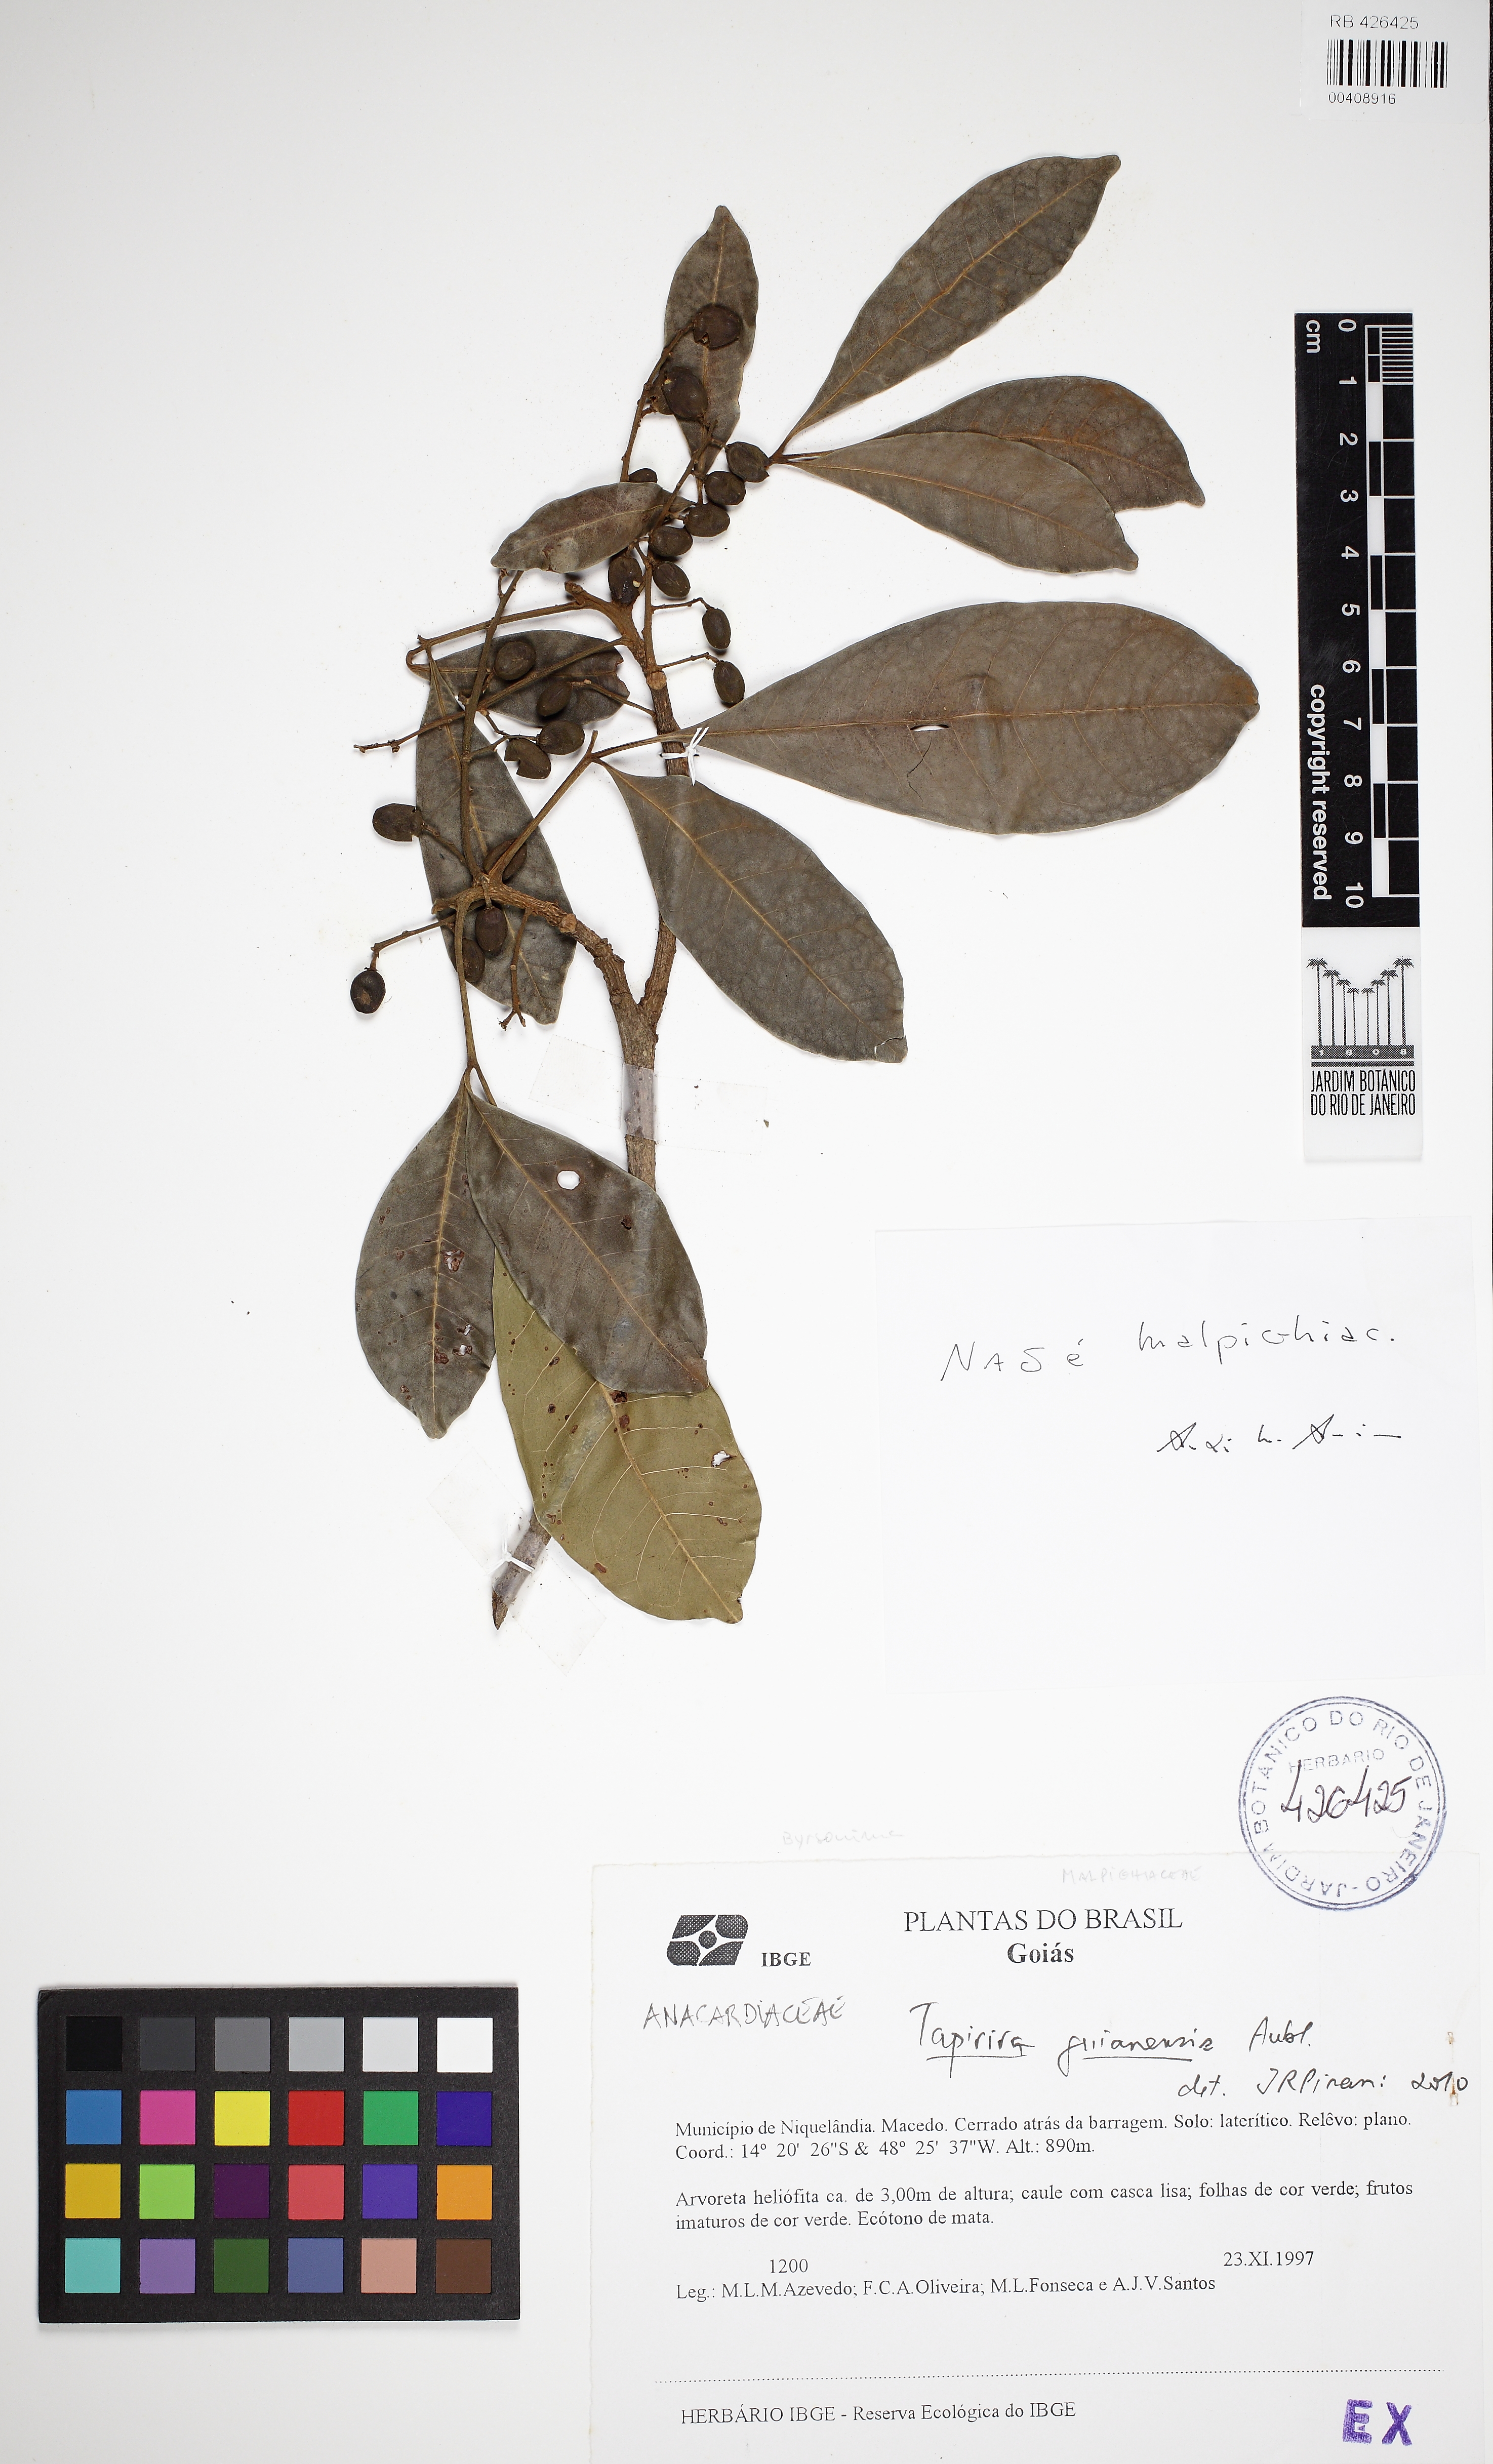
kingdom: Plantae
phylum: Tracheophyta
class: Magnoliopsida
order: Sapindales
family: Anacardiaceae
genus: Tapirira
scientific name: Tapirira guianensis
